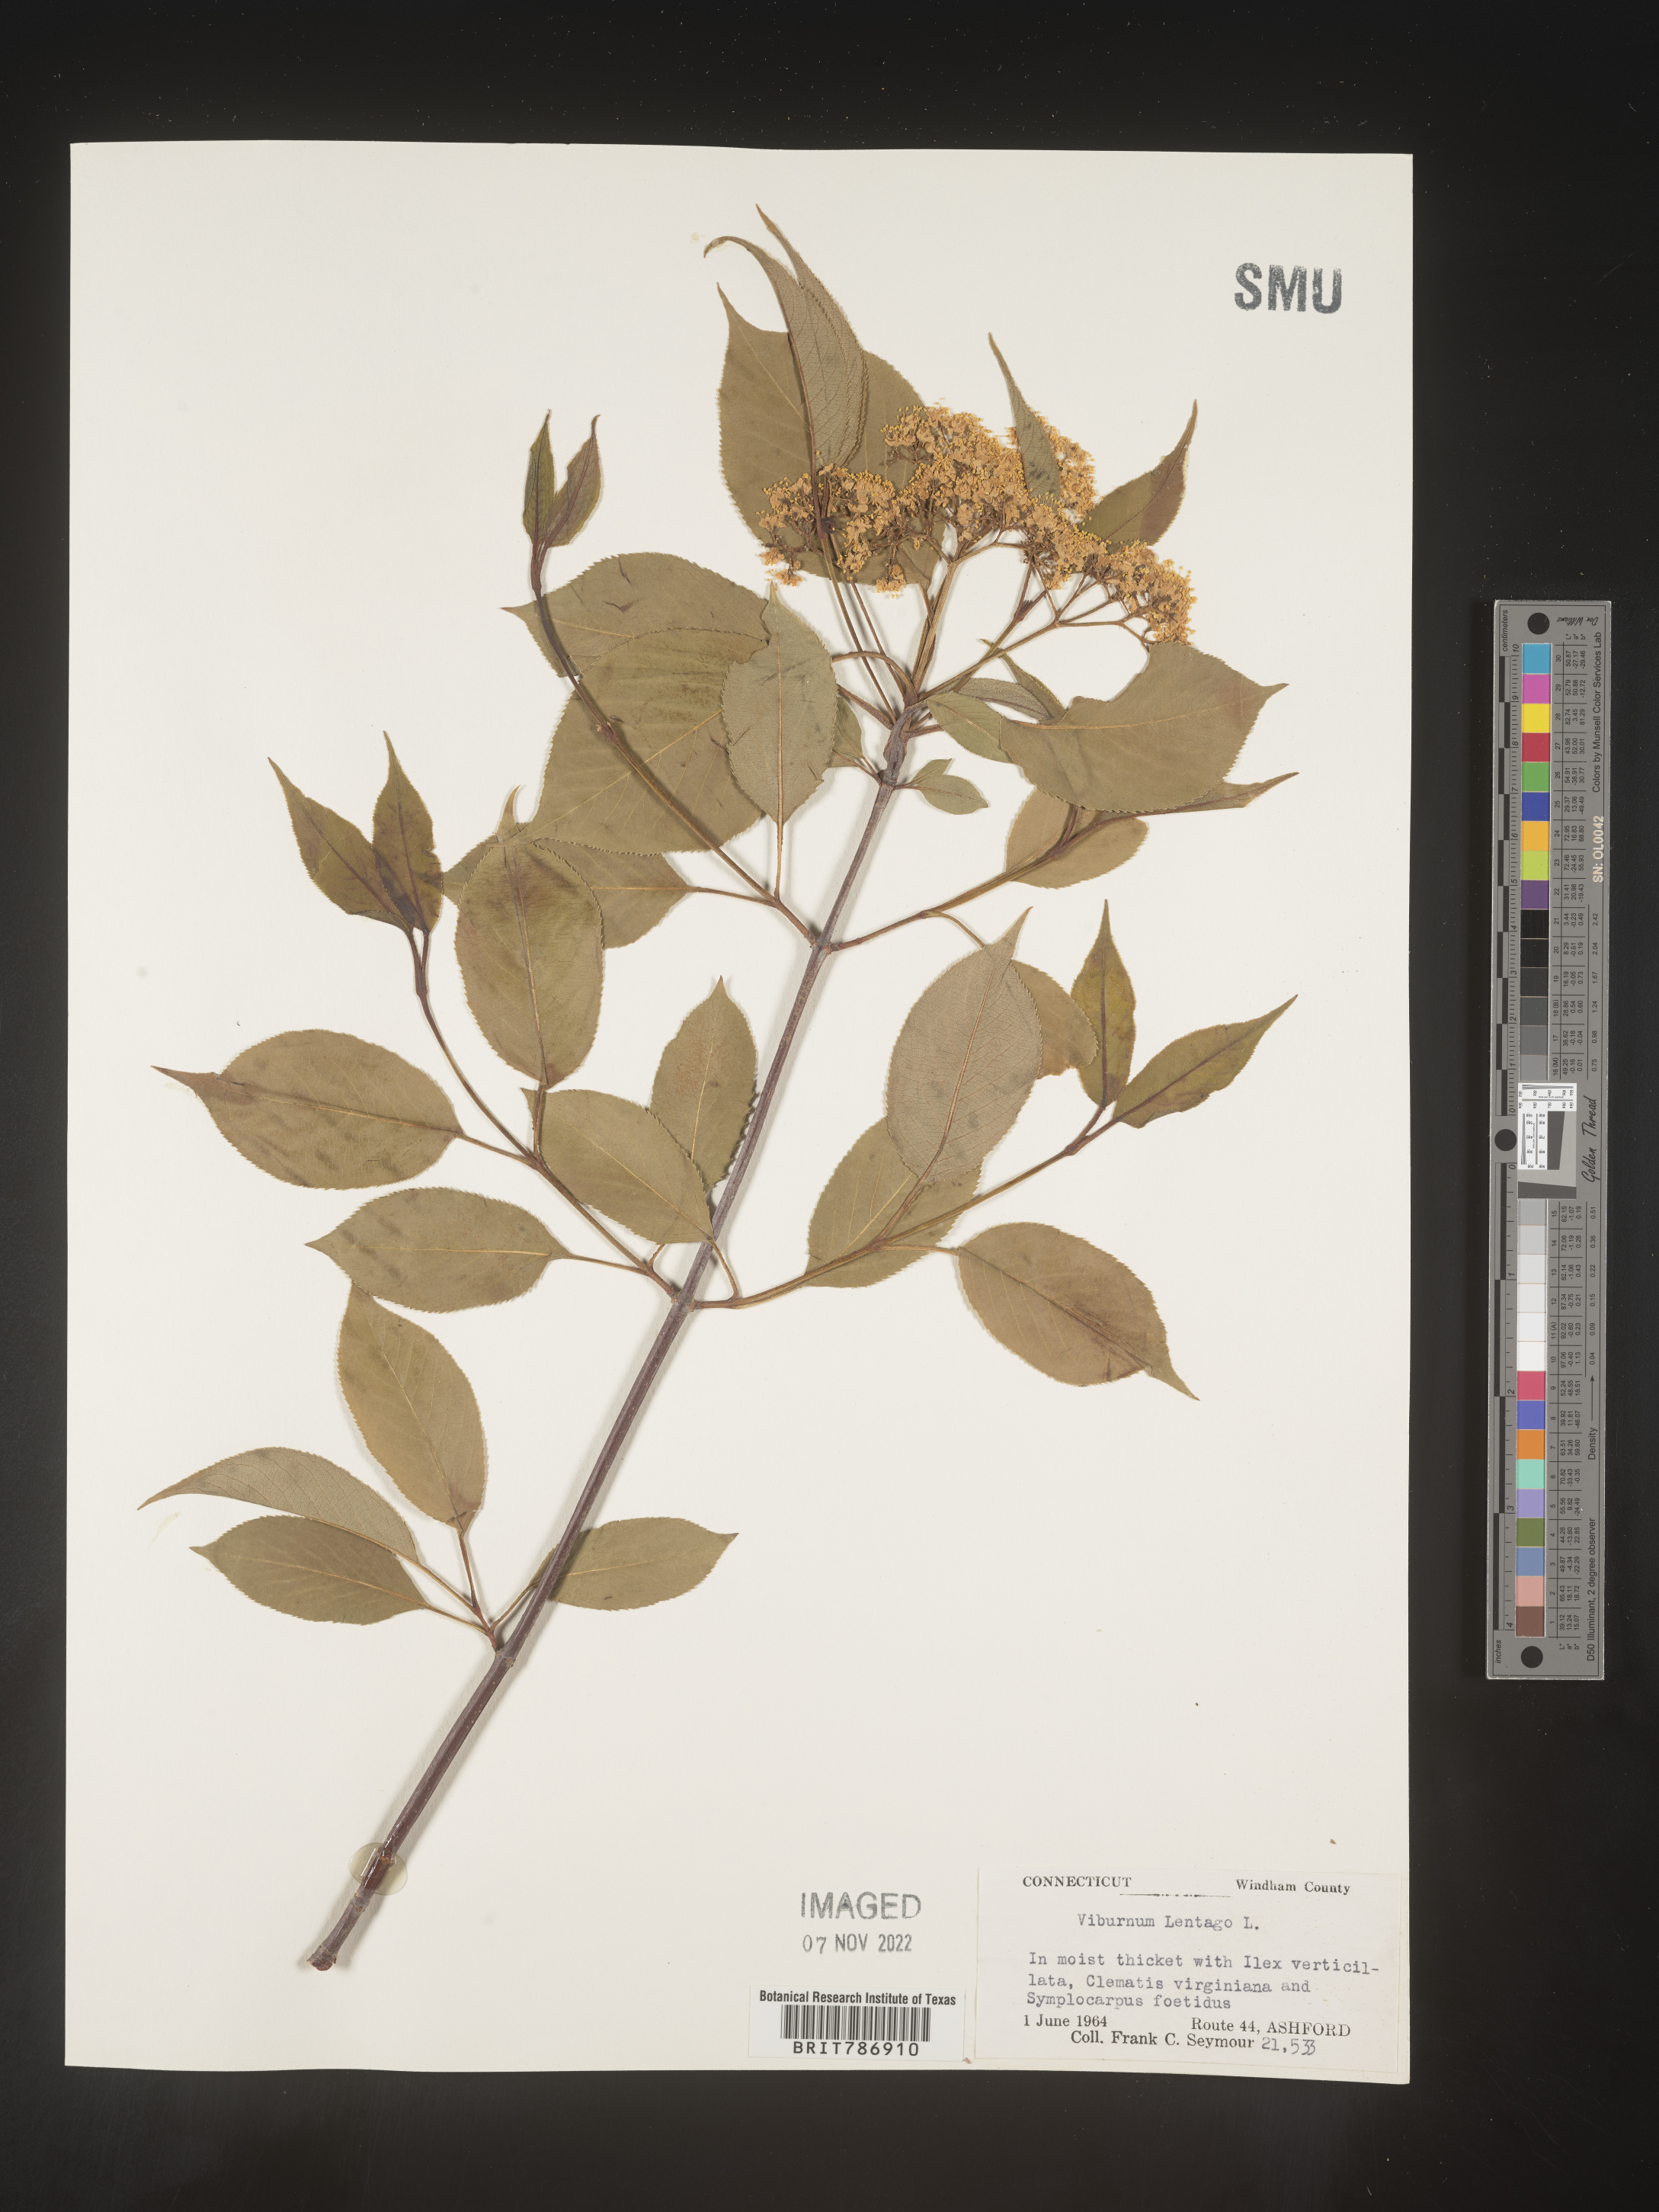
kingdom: Plantae
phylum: Tracheophyta
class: Magnoliopsida
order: Dipsacales
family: Viburnaceae
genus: Viburnum
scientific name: Viburnum lentago
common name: Black haw
